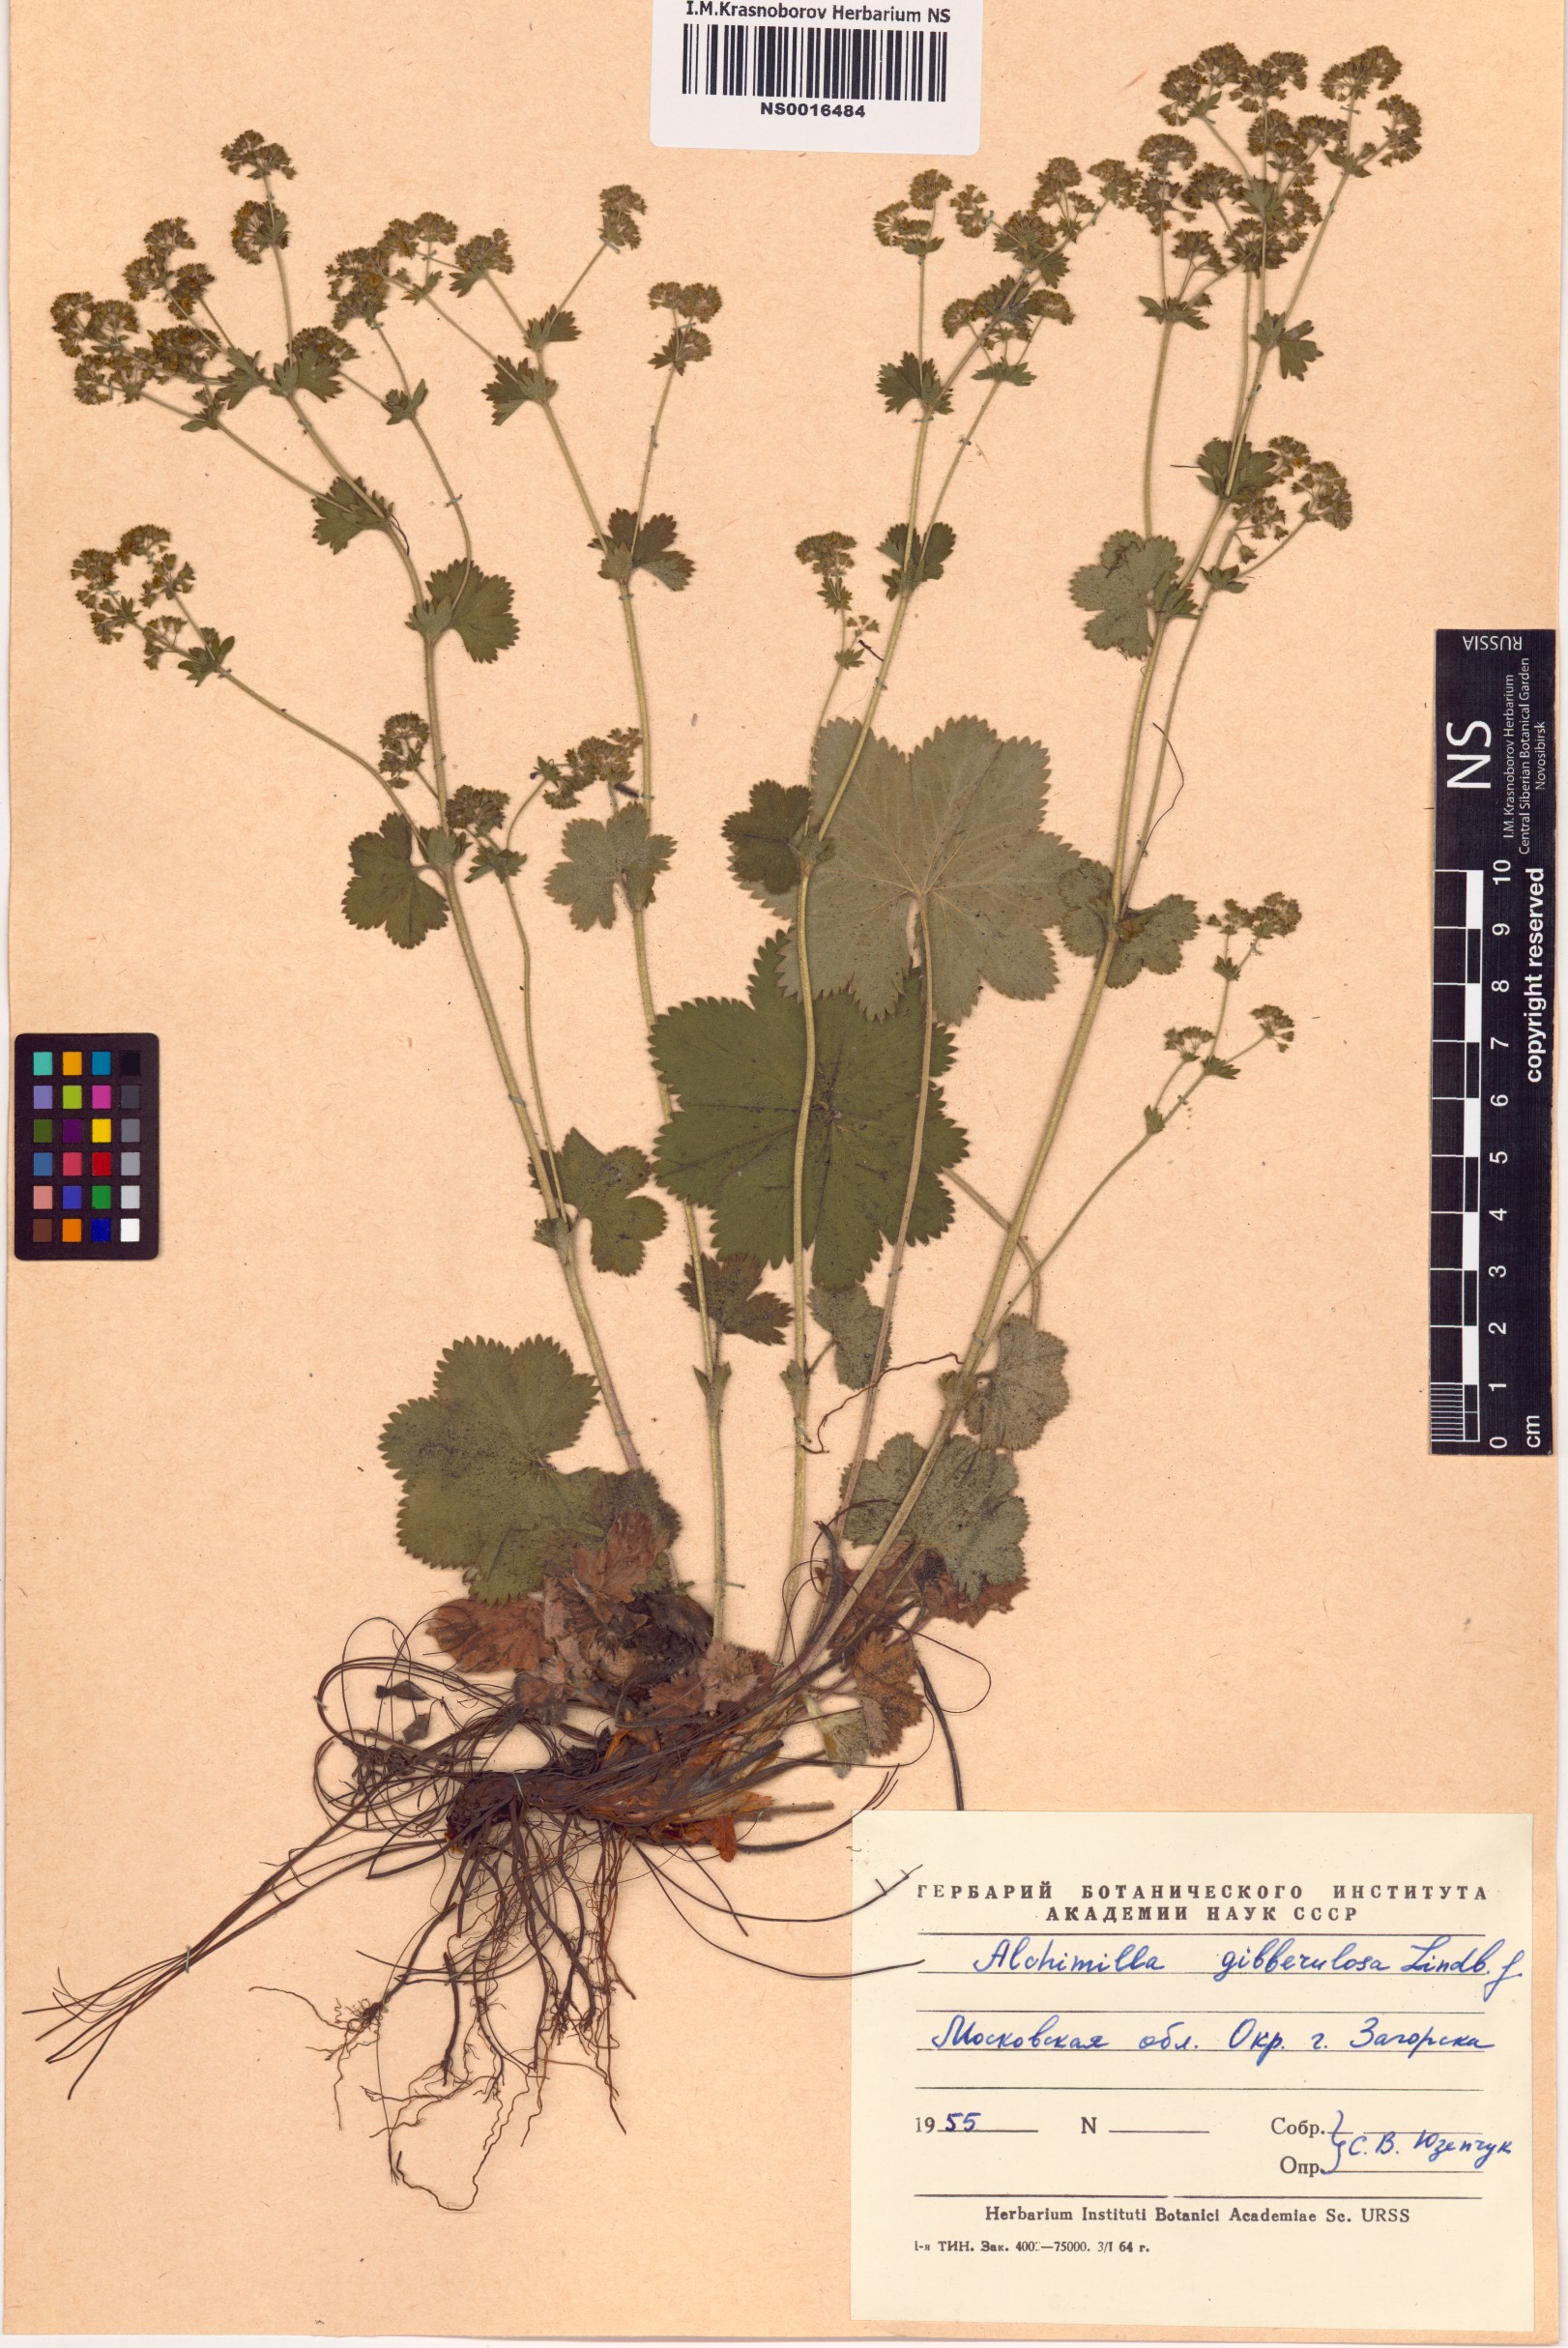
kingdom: Plantae
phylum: Tracheophyta
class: Magnoliopsida
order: Rosales
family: Rosaceae
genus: Alchemilla
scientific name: Alchemilla gibberulosa
